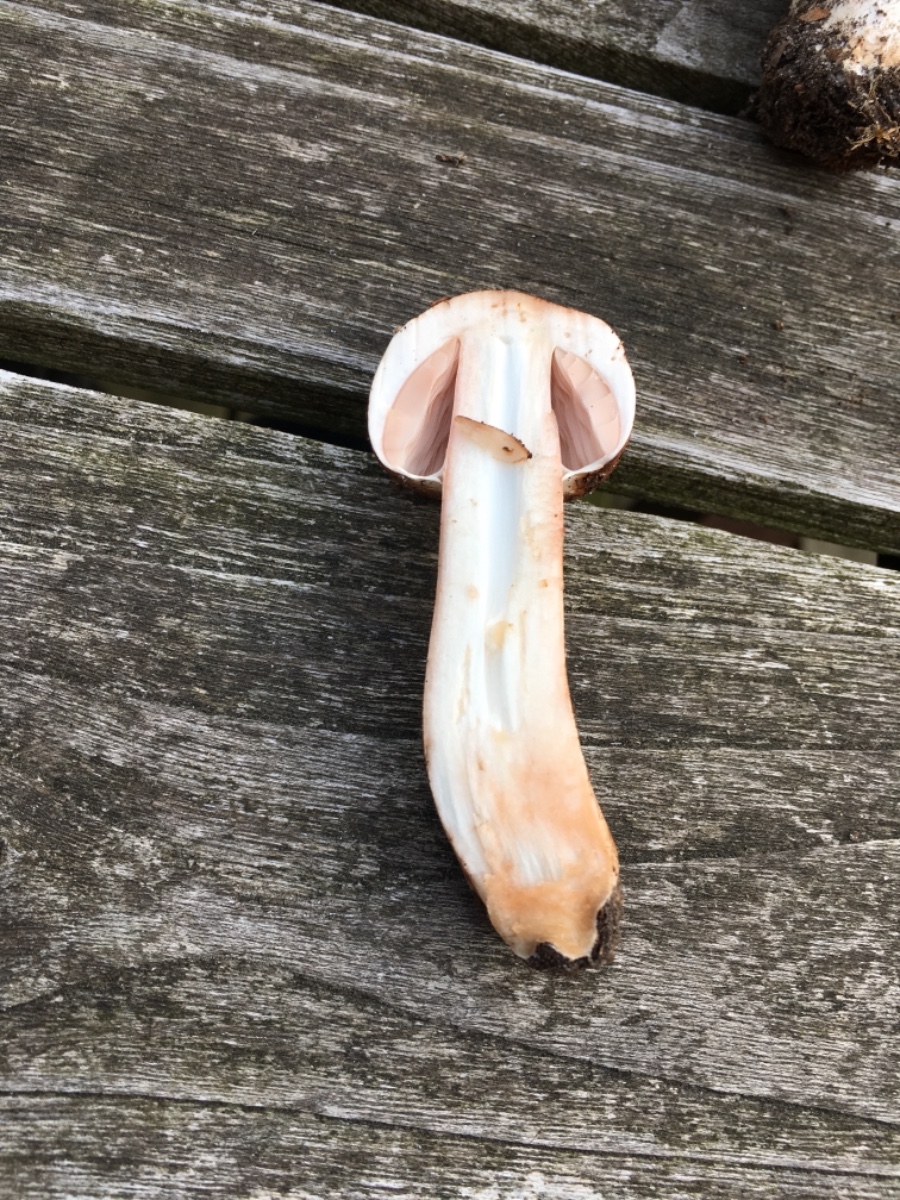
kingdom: Fungi
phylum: Basidiomycota
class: Agaricomycetes
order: Agaricales
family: Agaricaceae
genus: Agaricus
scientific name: Agaricus
